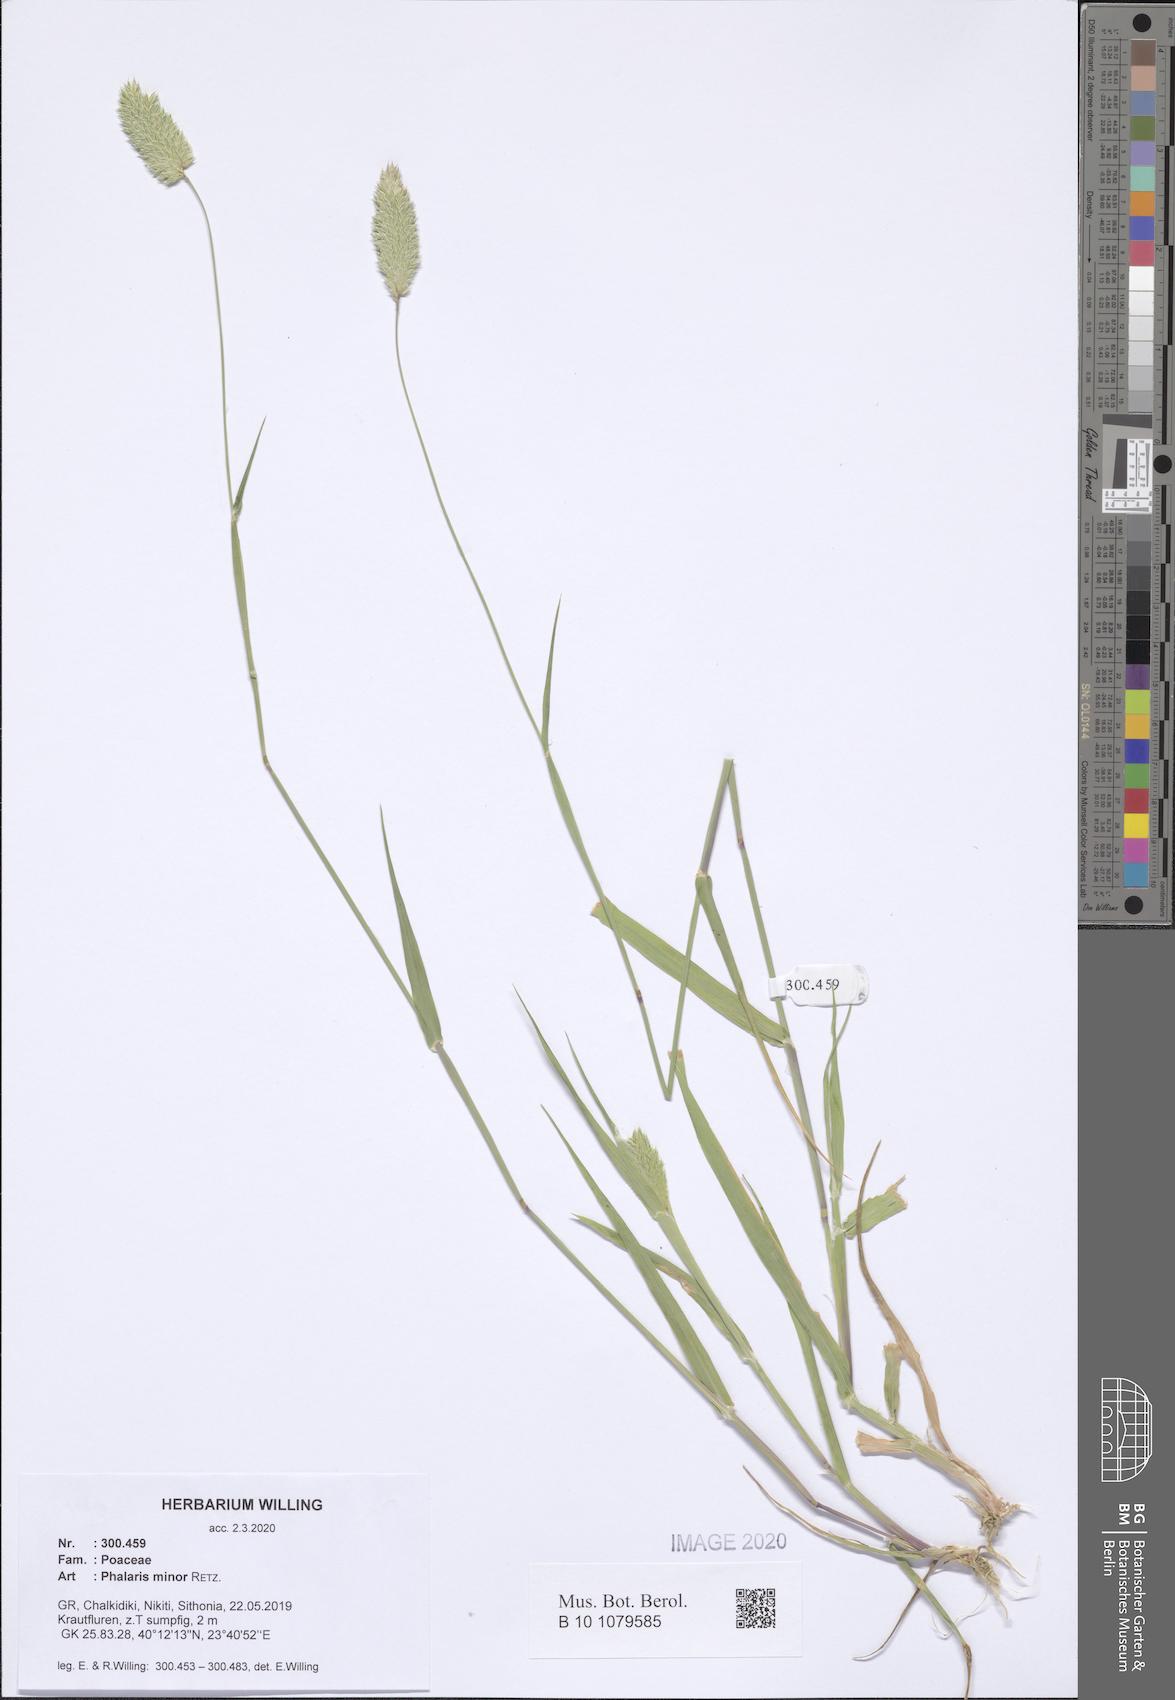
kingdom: Plantae
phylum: Tracheophyta
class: Liliopsida
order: Poales
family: Poaceae
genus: Phalaris
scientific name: Phalaris minor
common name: Littleseed canarygrass
